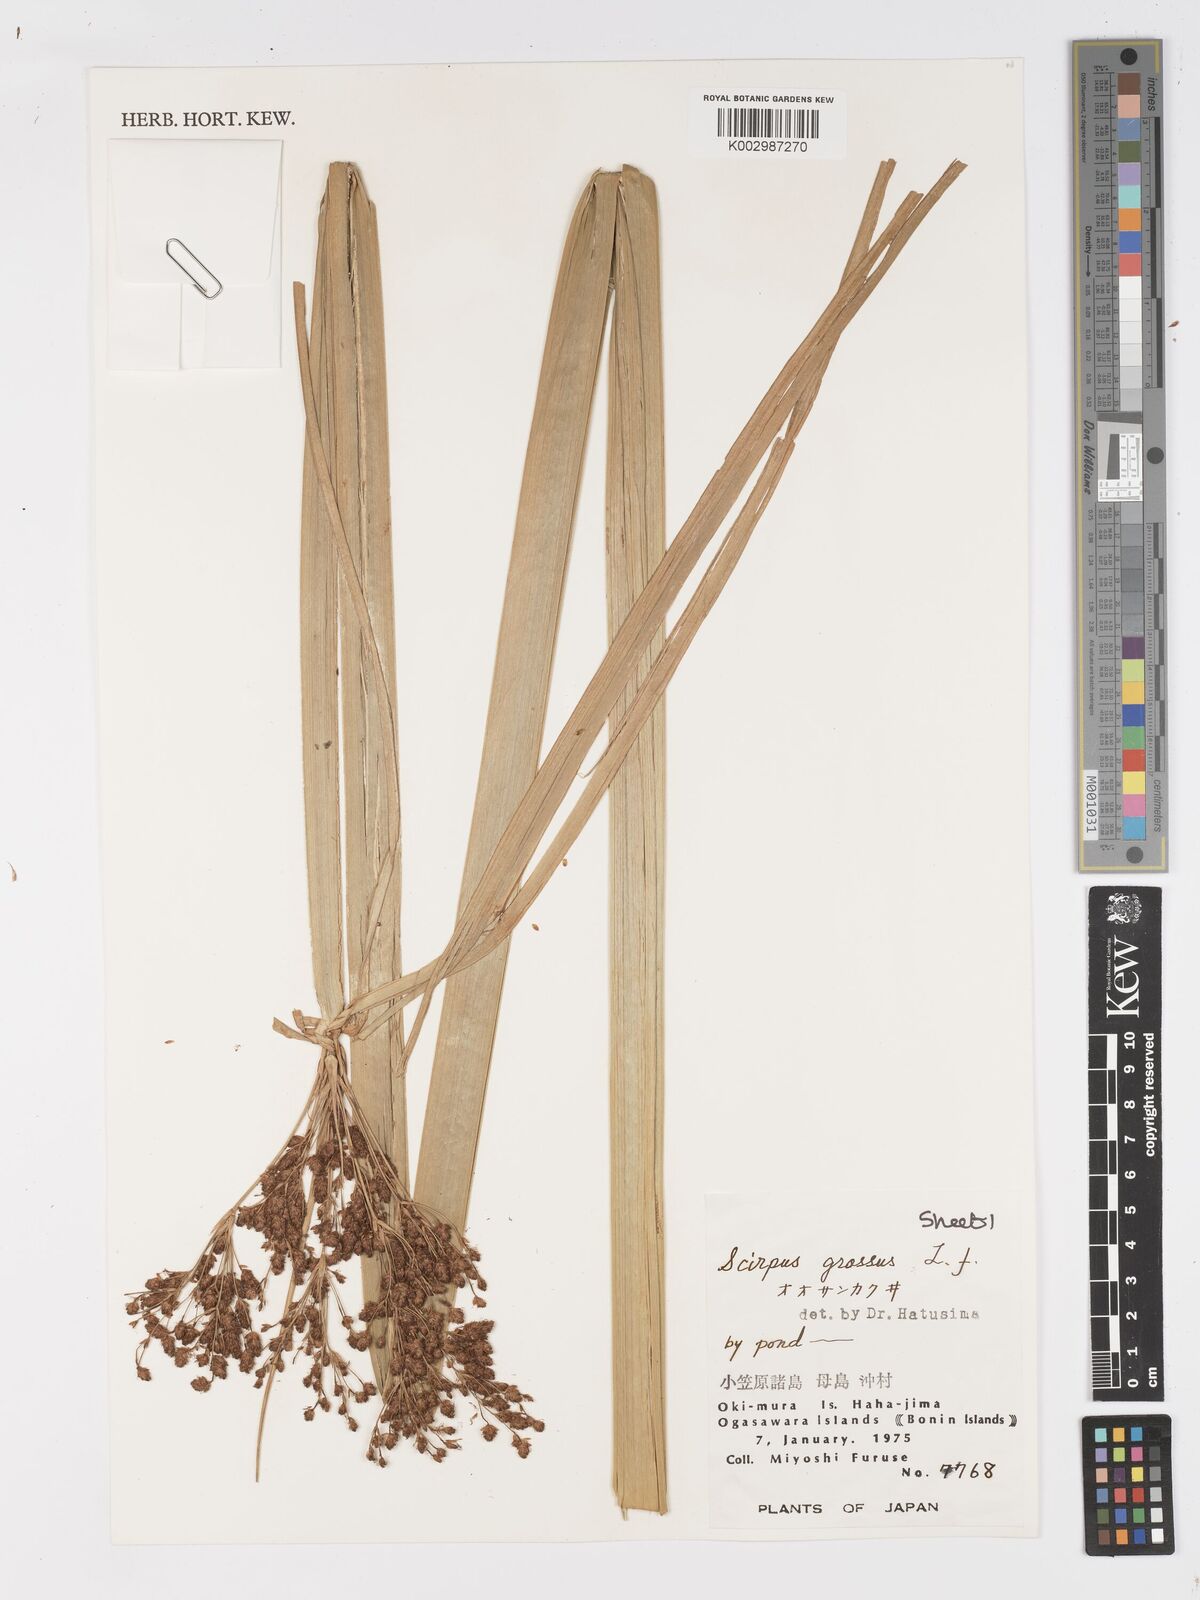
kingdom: Plantae
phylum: Tracheophyta
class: Liliopsida
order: Poales
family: Cyperaceae
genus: Actinoscirpus
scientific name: Actinoscirpus grossus
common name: Giant bur rush
